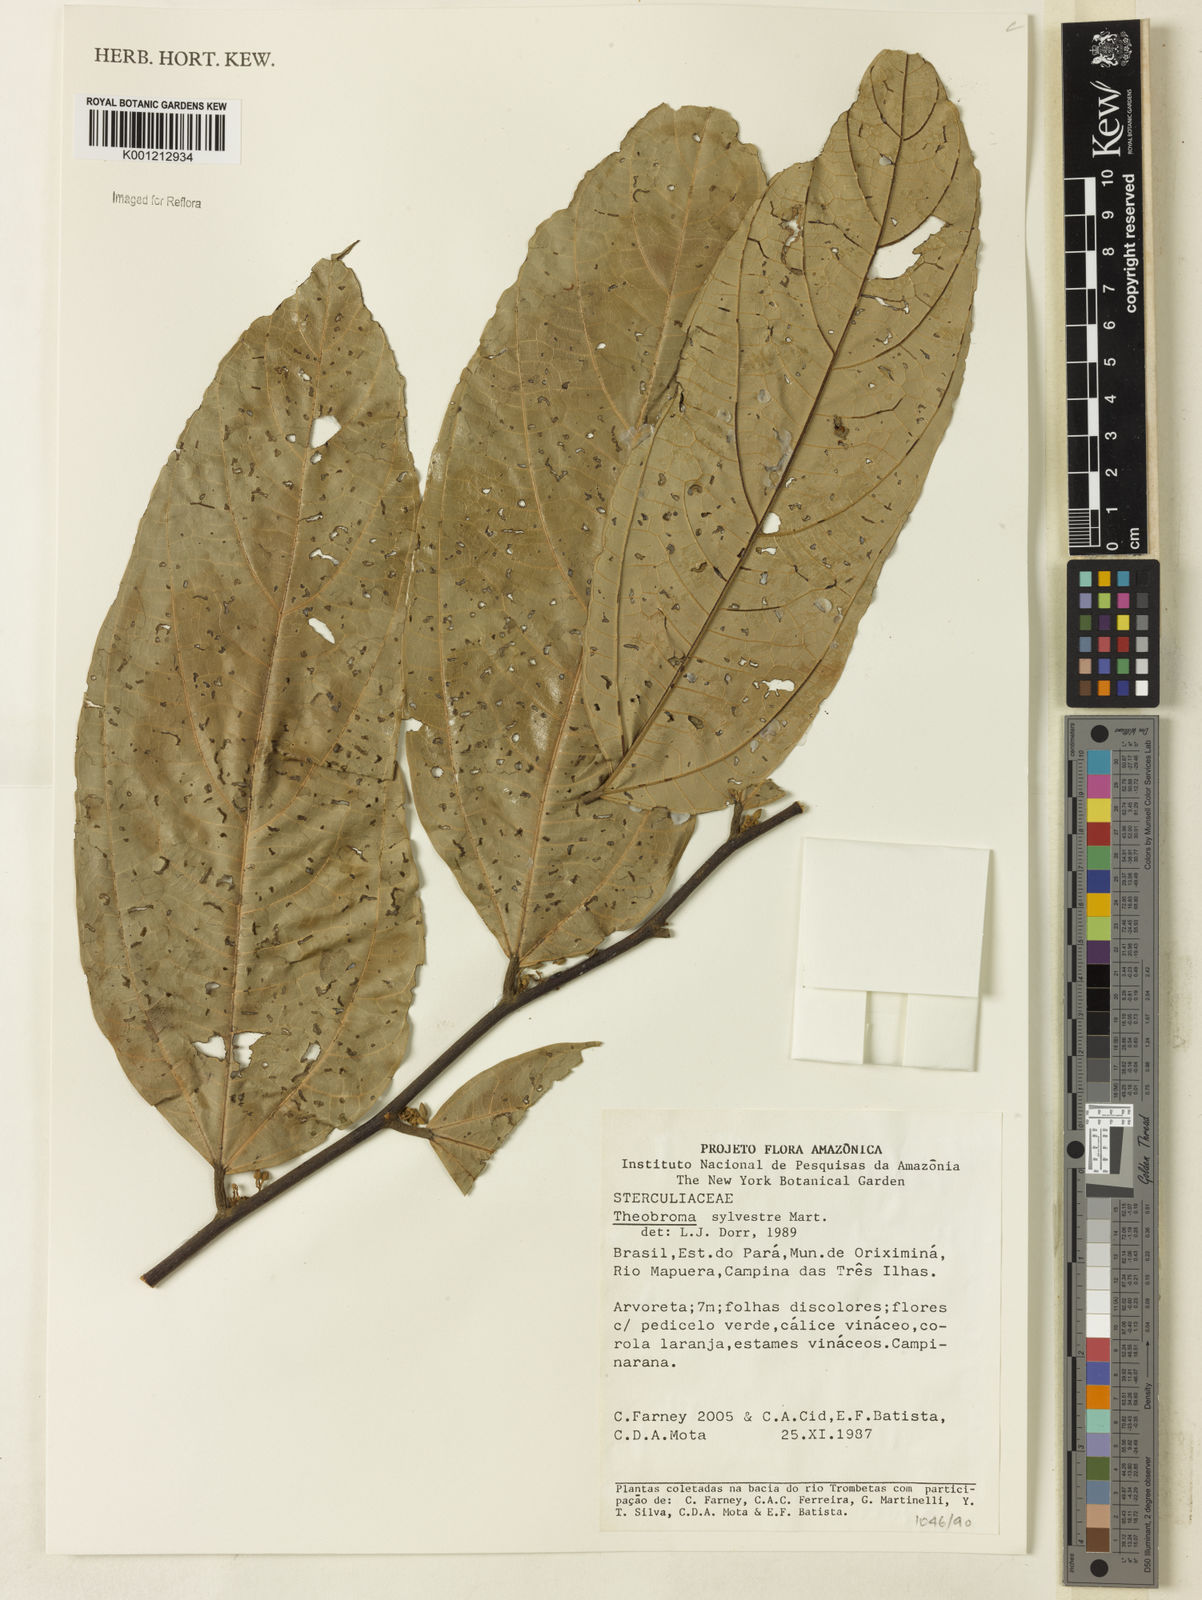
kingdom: Plantae
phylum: Tracheophyta
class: Magnoliopsida
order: Malvales
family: Malvaceae
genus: Theobroma
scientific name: Theobroma sylvestre
